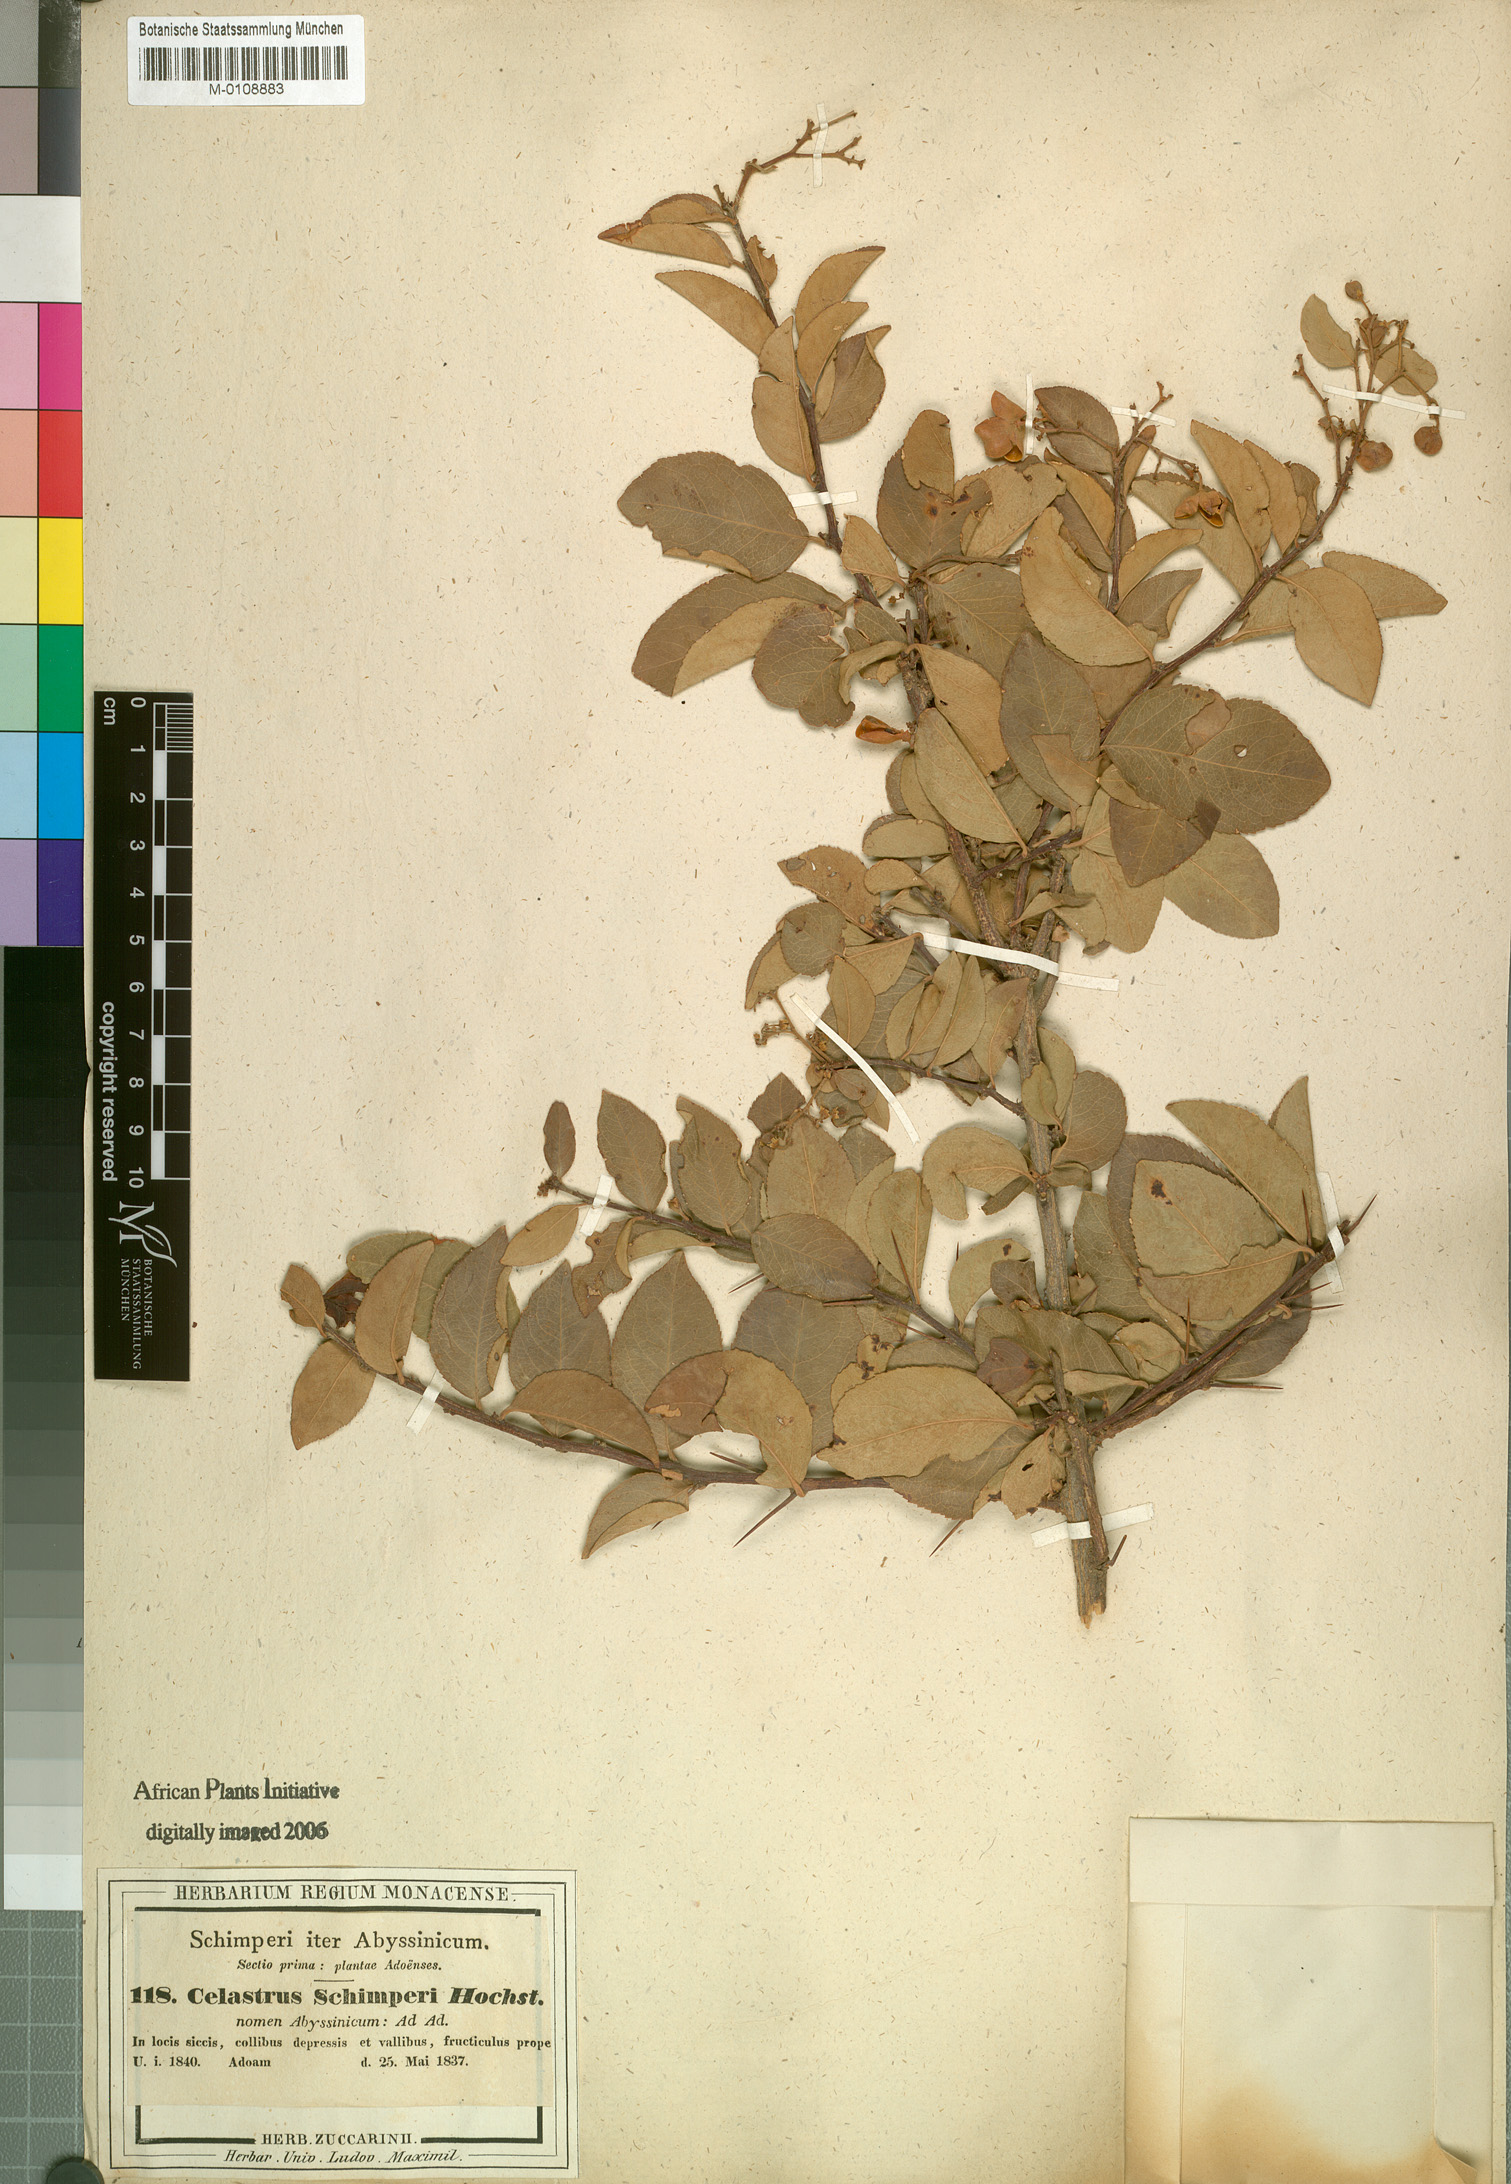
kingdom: Plantae
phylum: Tracheophyta
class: Magnoliopsida
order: Celastrales
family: Celastraceae
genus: Gymnosporia
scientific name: Gymnosporia serrata
